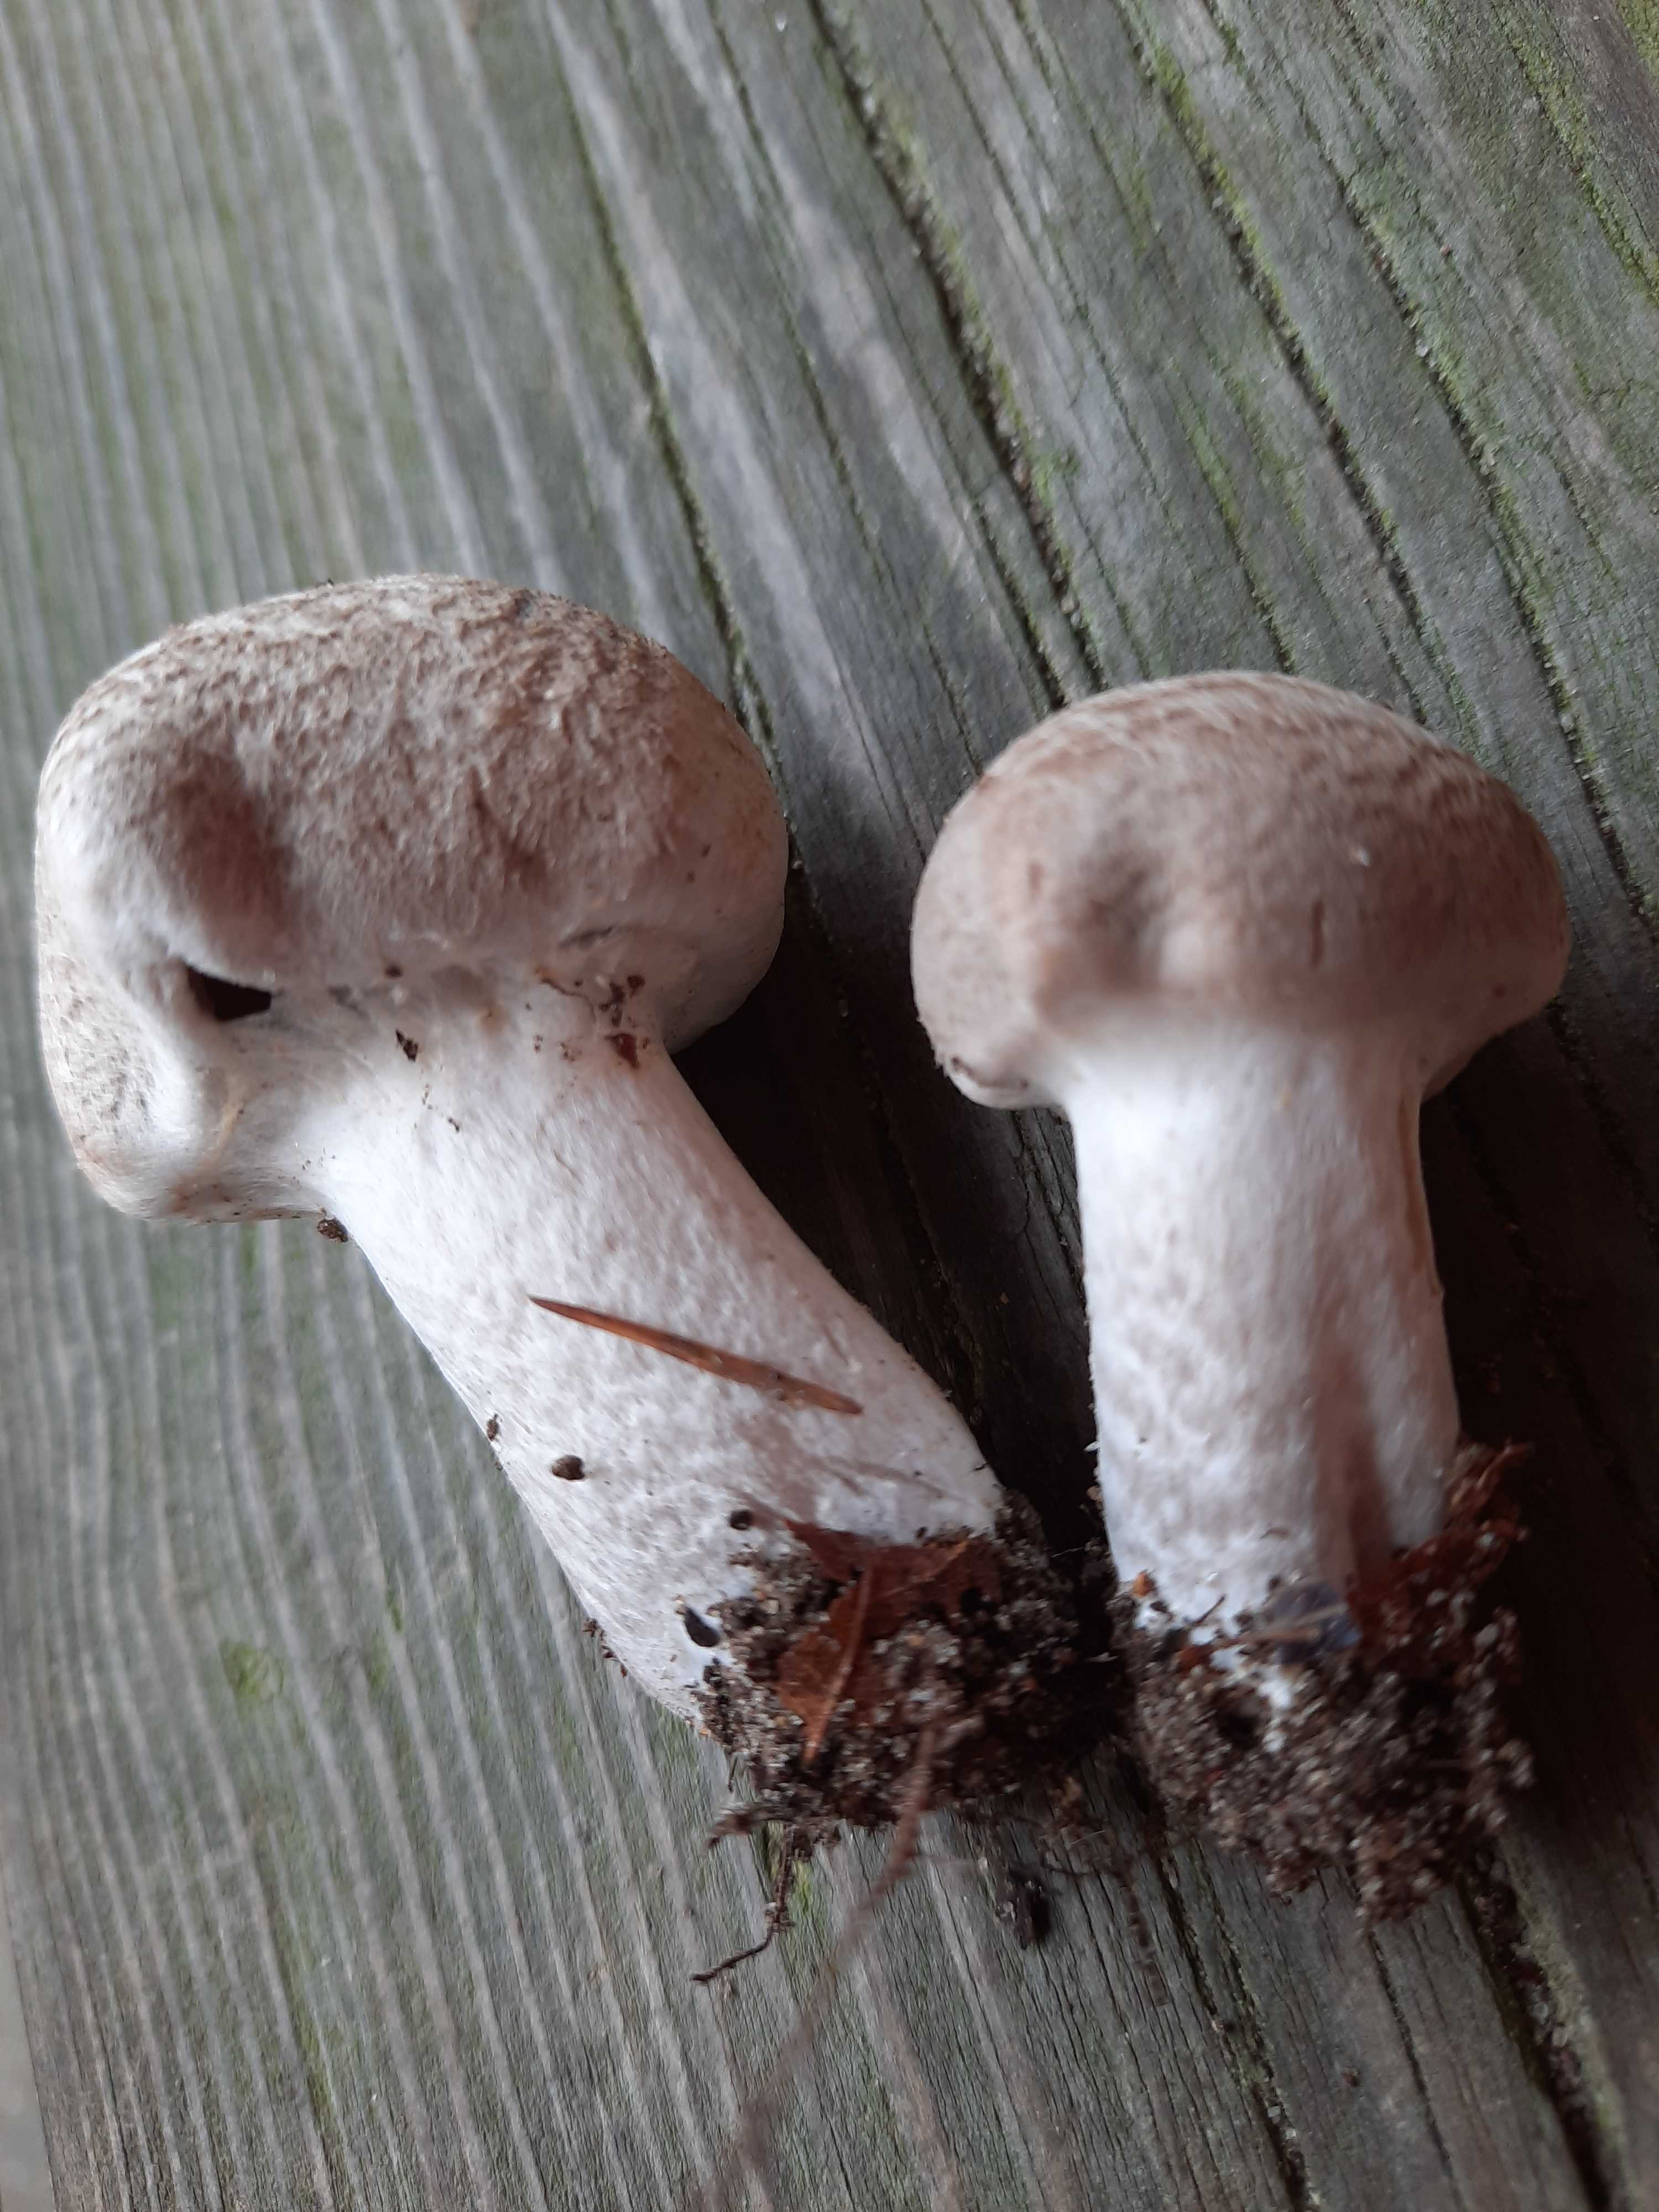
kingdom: Fungi
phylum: Basidiomycota
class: Agaricomycetes
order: Agaricales
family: Tricholomataceae
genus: Tricholoma
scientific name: Tricholoma cingulatum
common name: ring-ridderhat
